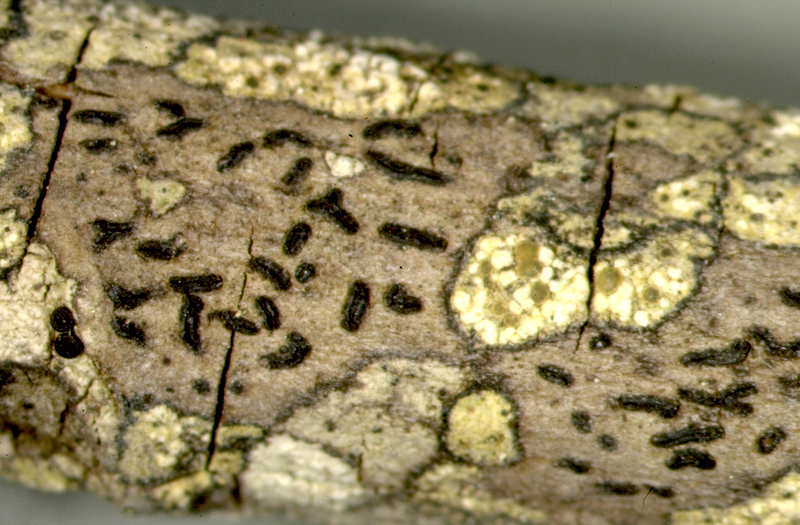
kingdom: Fungi
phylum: Ascomycota
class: Lecanoromycetes
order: Lecanorales
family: Lecanoraceae
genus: Lecanora
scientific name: Lecanora
